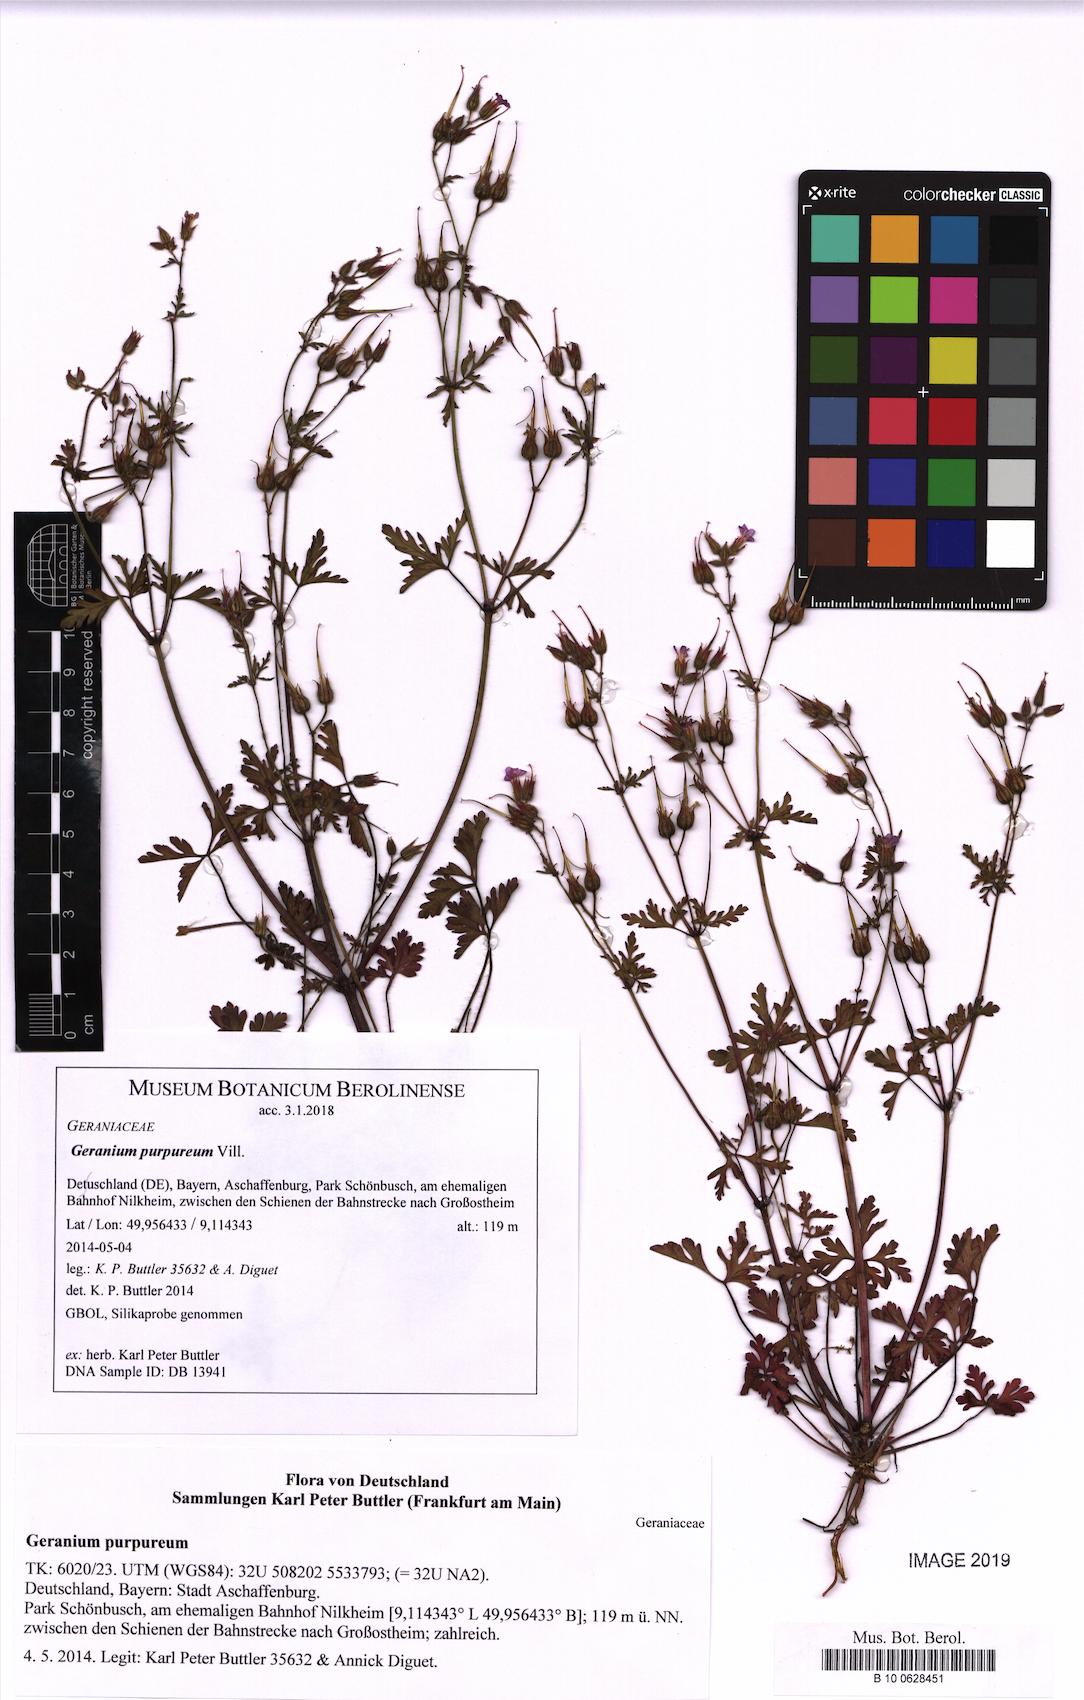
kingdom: Plantae
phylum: Tracheophyta
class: Magnoliopsida
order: Geraniales
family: Geraniaceae
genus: Geranium
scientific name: Geranium purpureum
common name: Little-robin
